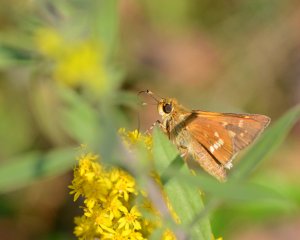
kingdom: Animalia
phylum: Arthropoda
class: Insecta
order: Lepidoptera
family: Hesperiidae
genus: Hesperia
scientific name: Hesperia leonardus
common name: Leonard's Skipper
